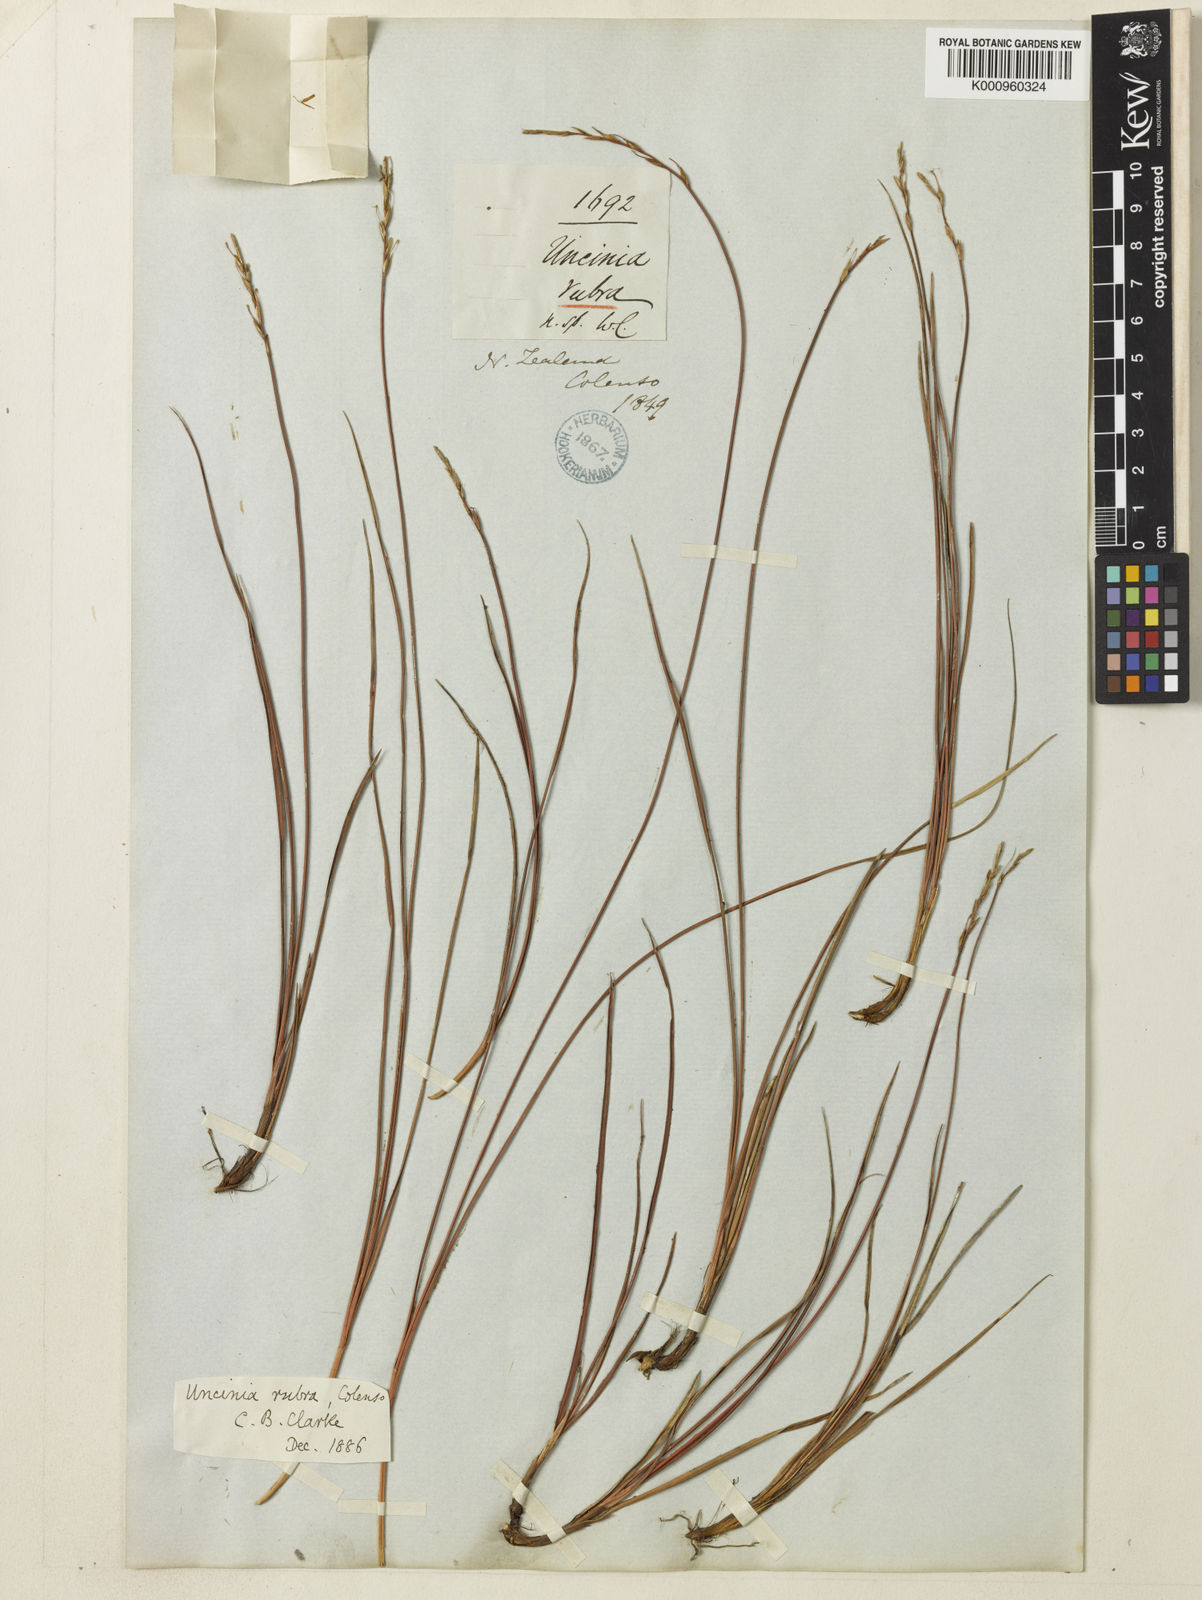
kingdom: Plantae
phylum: Tracheophyta
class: Liliopsida
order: Poales
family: Cyperaceae
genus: Carex
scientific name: Carex punicea
